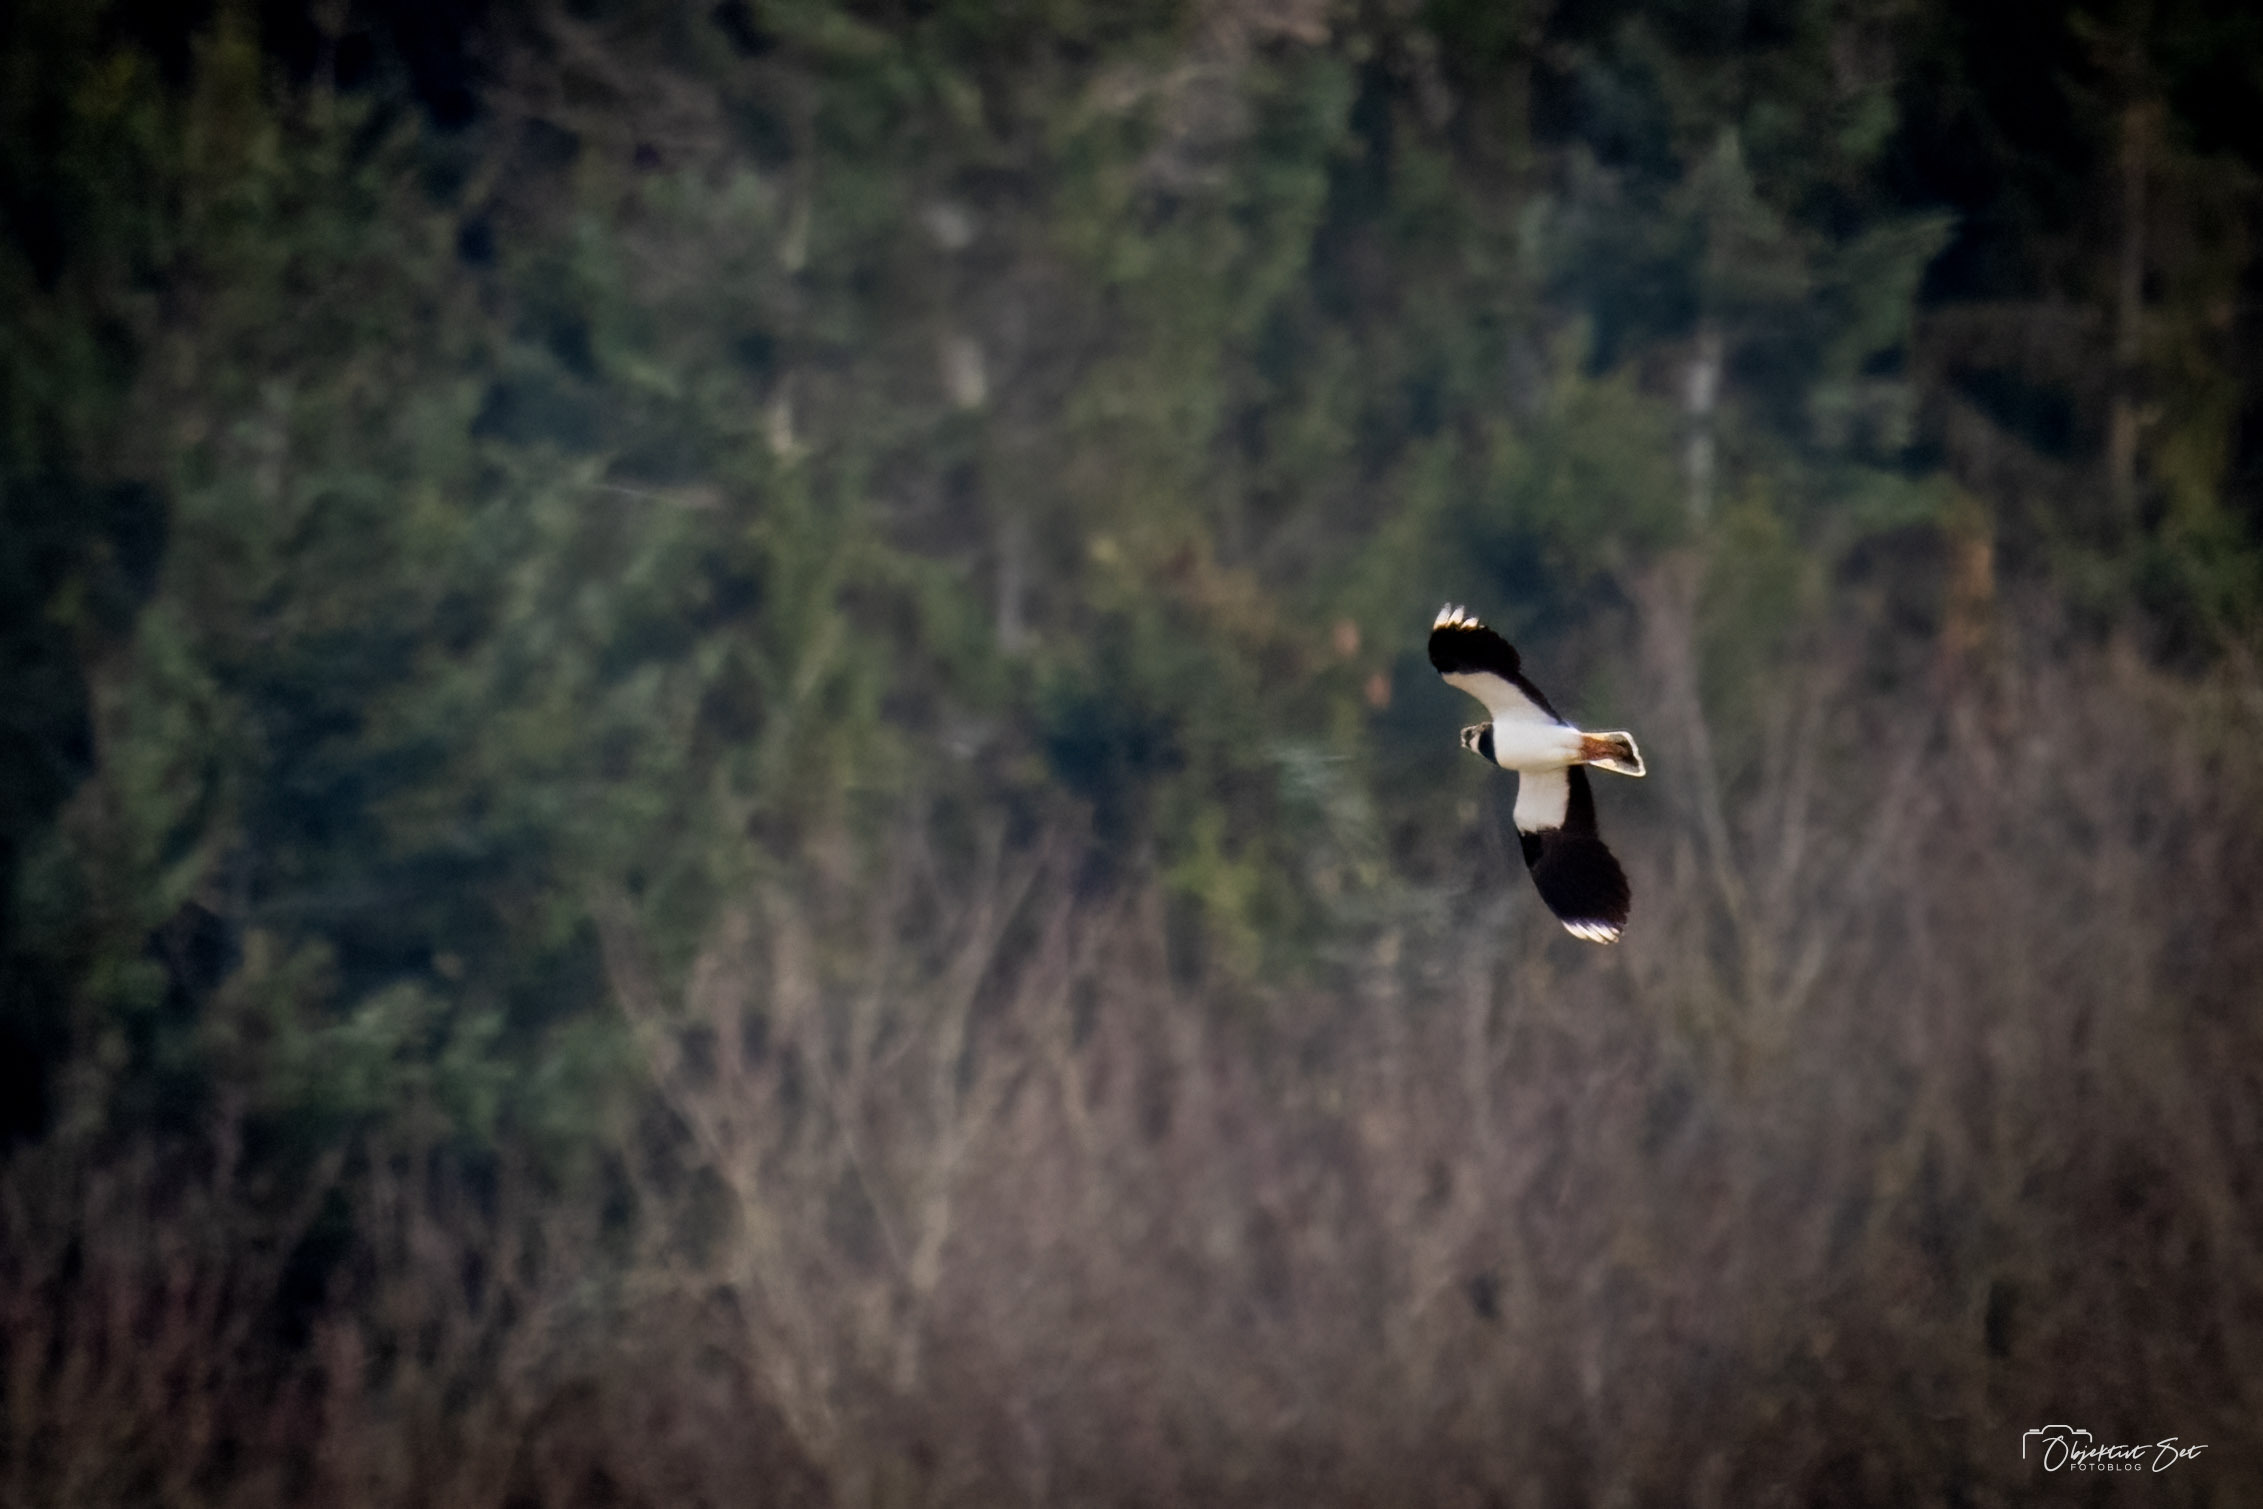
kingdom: Animalia
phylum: Chordata
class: Aves
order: Charadriiformes
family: Charadriidae
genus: Vanellus
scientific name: Vanellus vanellus
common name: Vibe
